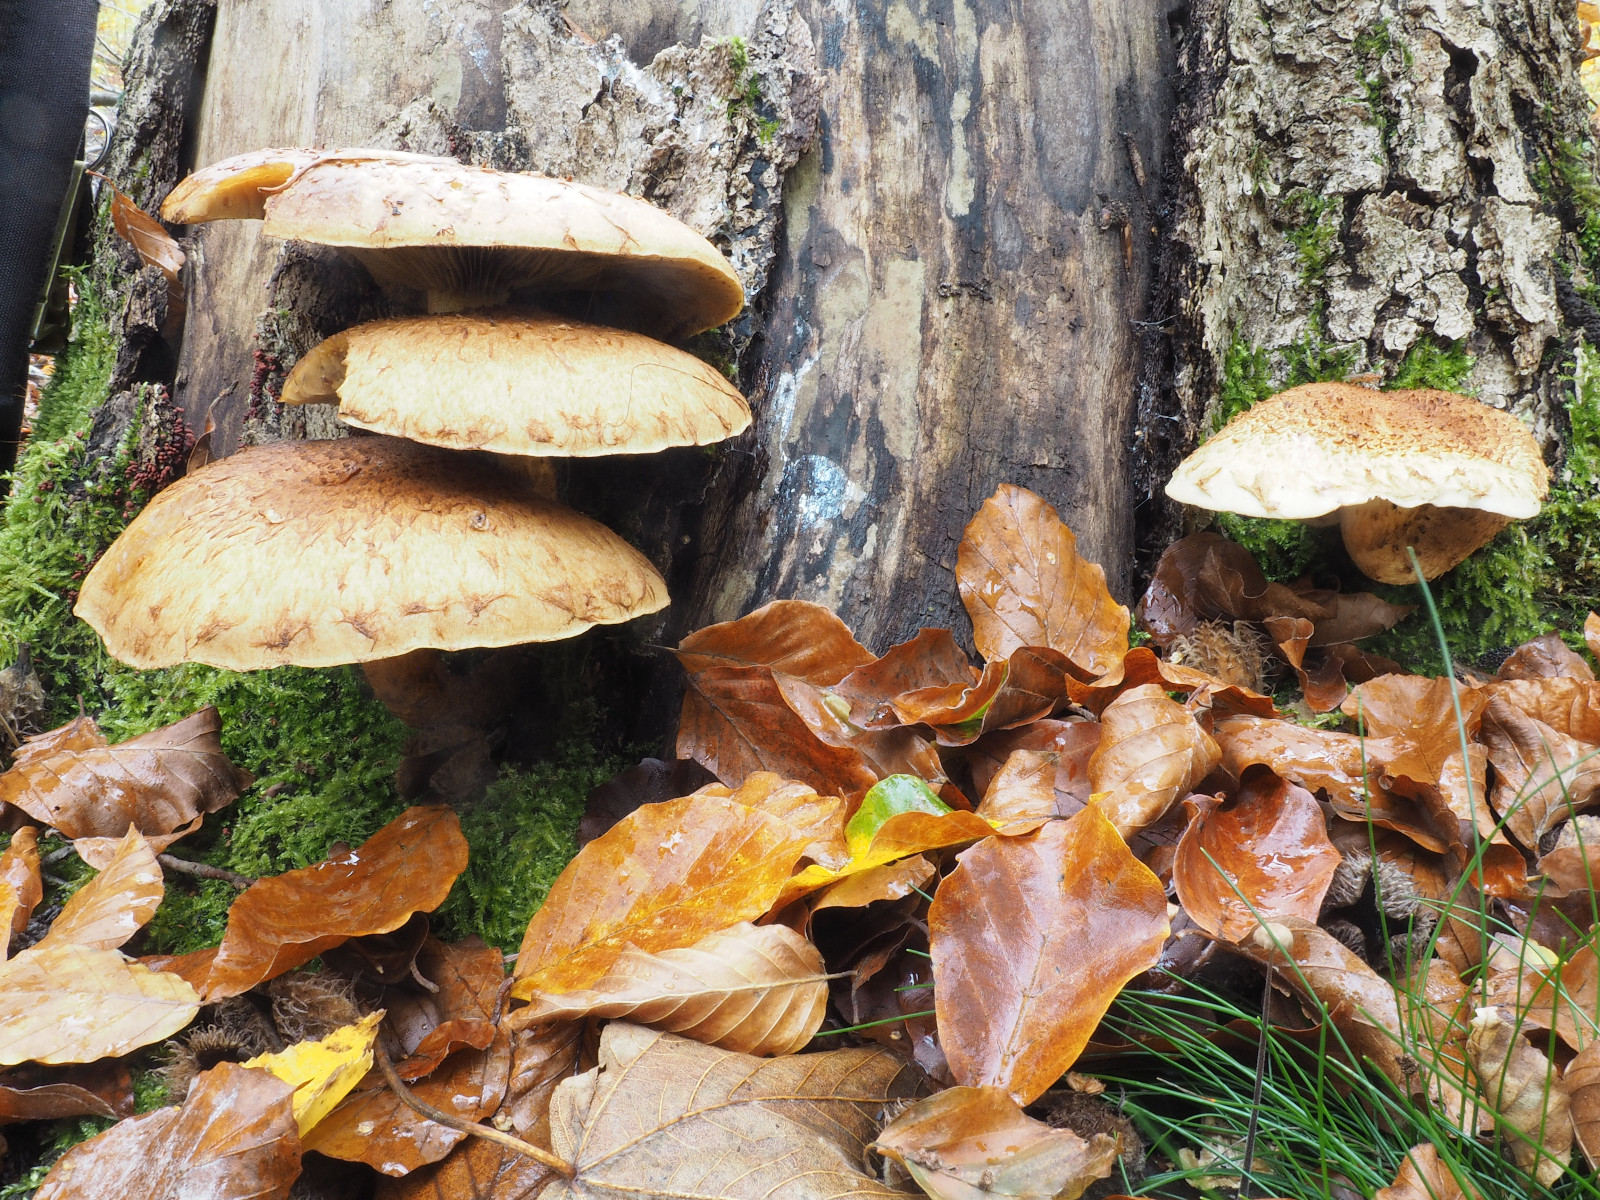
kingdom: Fungi
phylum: Basidiomycota
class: Agaricomycetes
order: Agaricales
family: Strophariaceae
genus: Pholiota
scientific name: Pholiota squarrosa
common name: krumskællet skælhat
